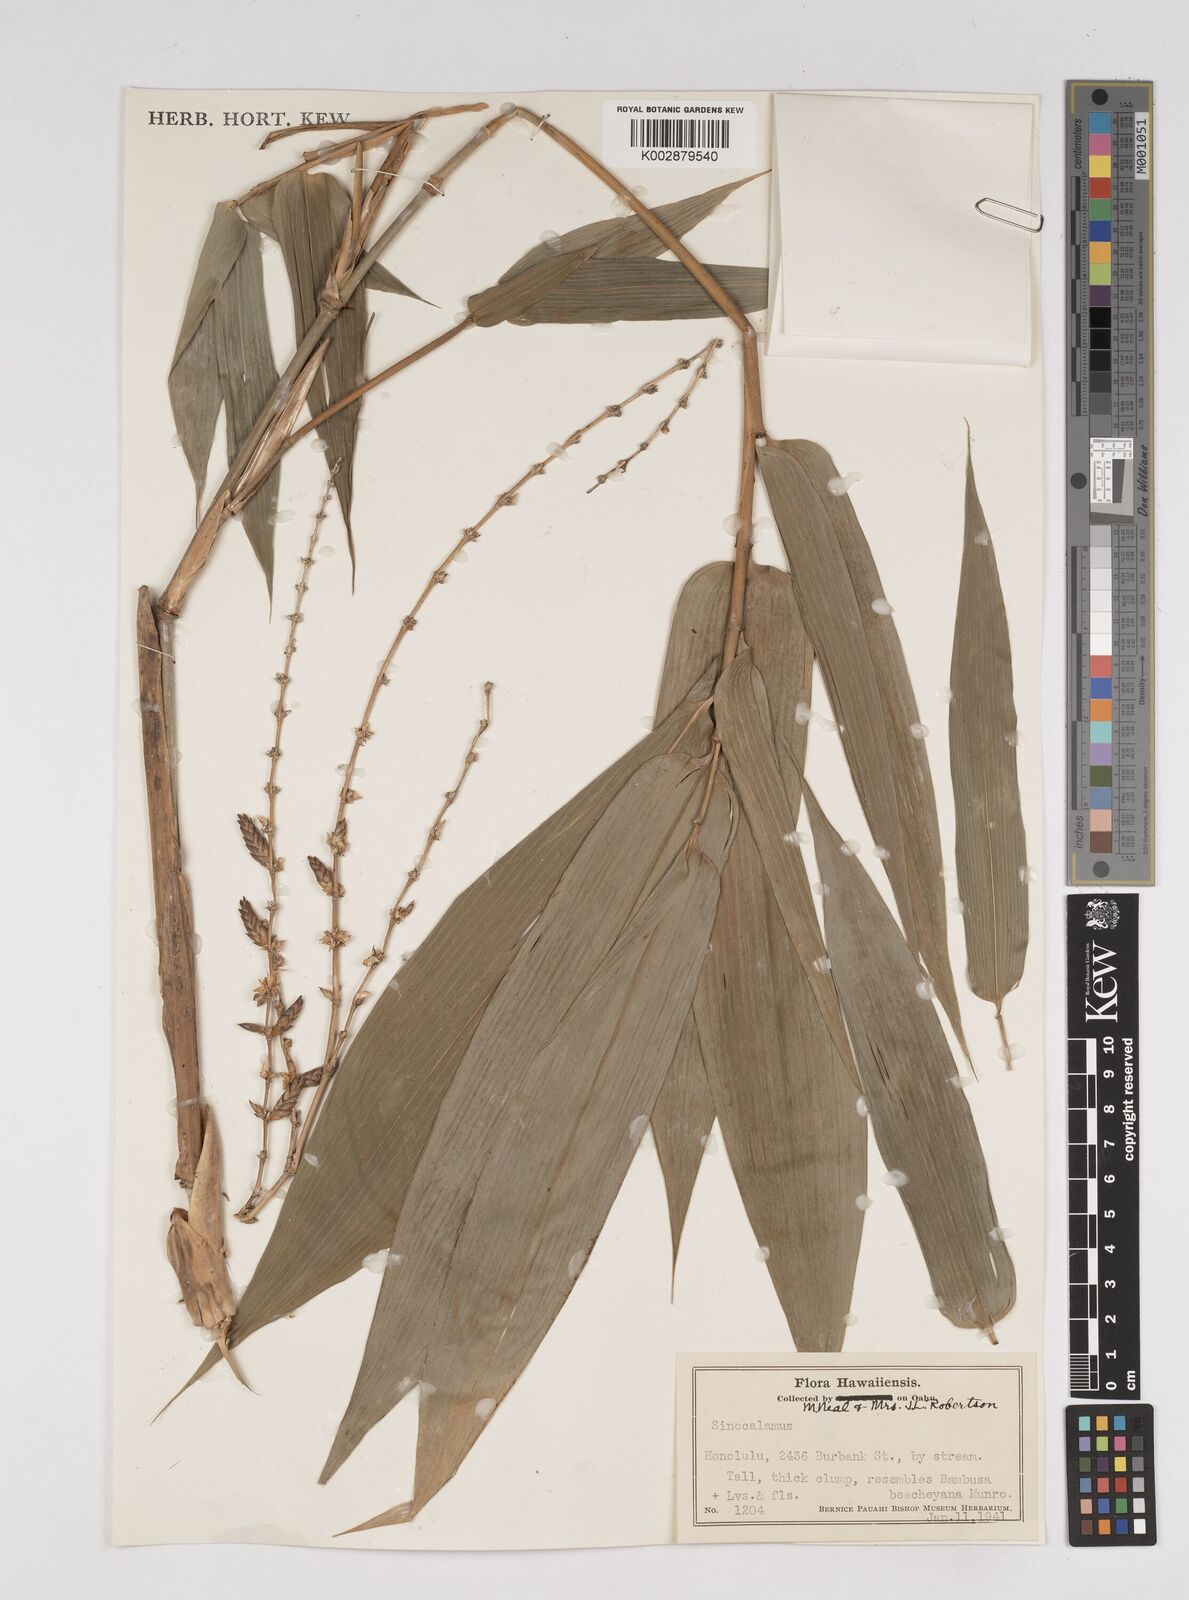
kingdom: Plantae
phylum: Tracheophyta
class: Liliopsida
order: Poales
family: Poaceae
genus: Dendrocalamus
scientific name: Dendrocalamus
